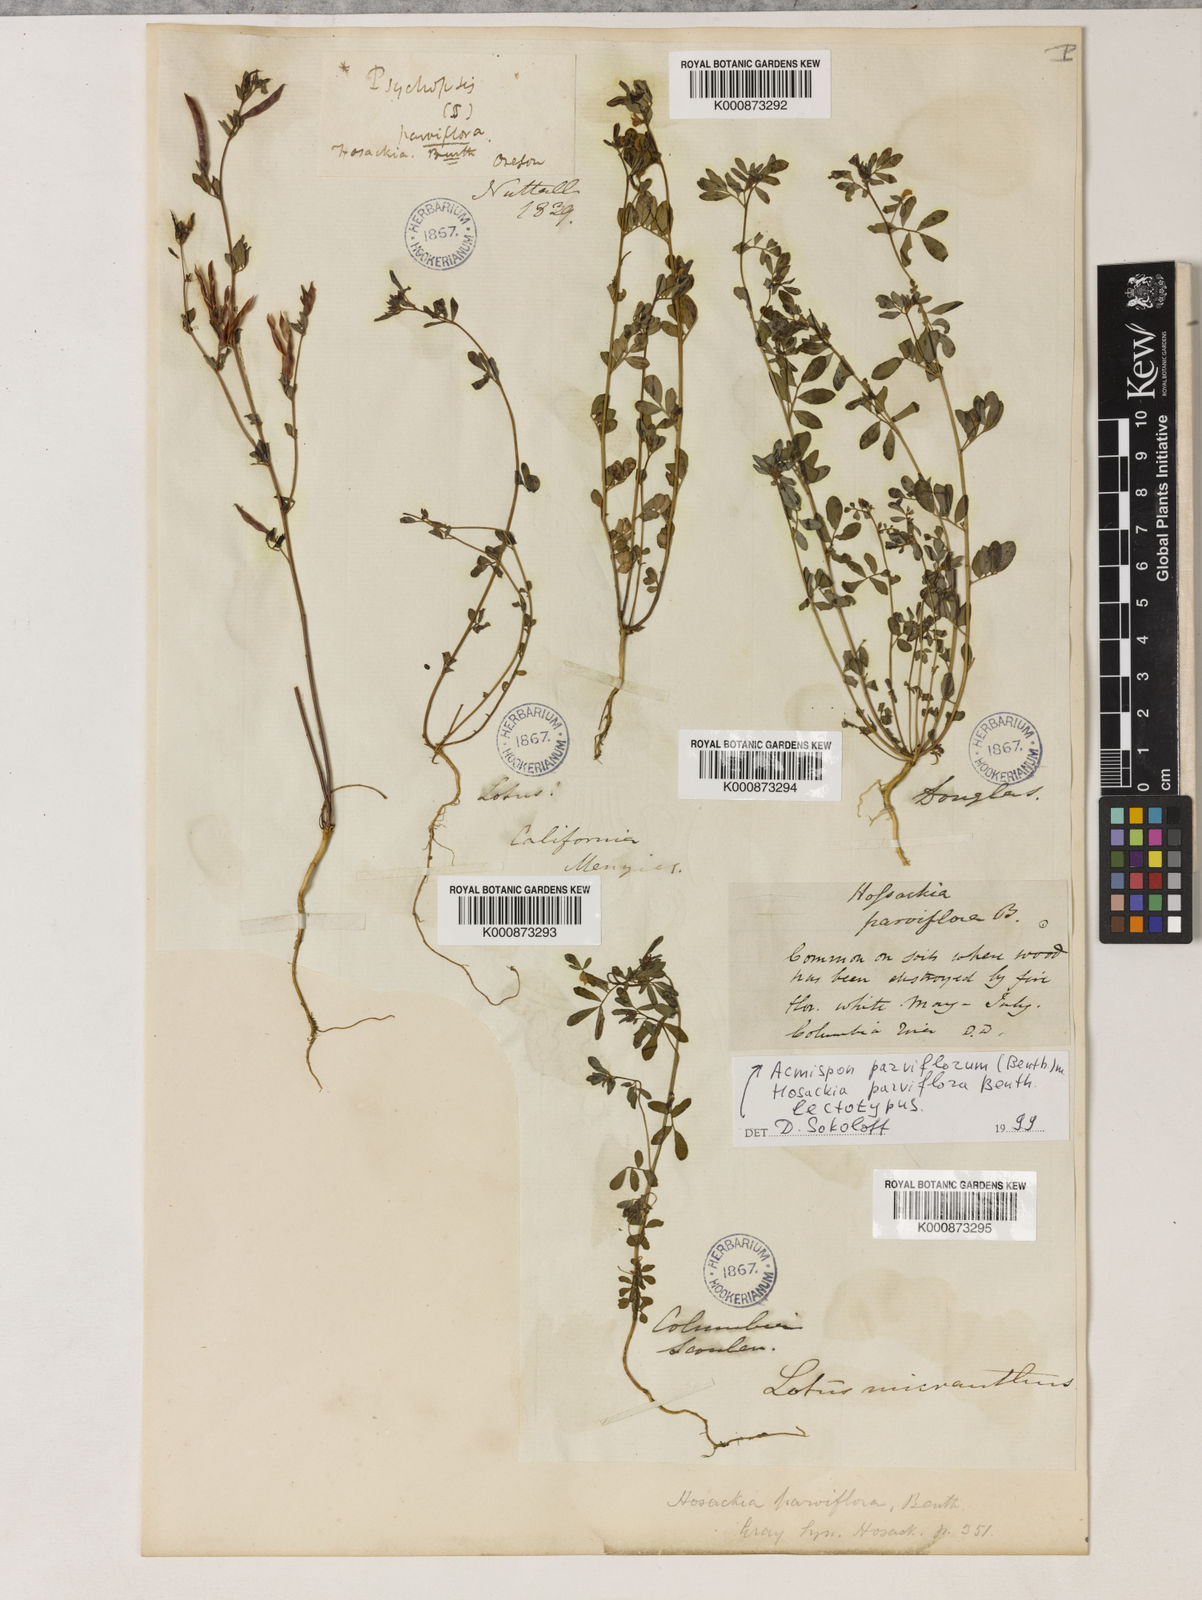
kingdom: Plantae
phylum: Tracheophyta
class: Magnoliopsida
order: Fabales
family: Fabaceae
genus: Acmispon
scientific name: Acmispon parviflorus
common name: Desert deer-vetch
